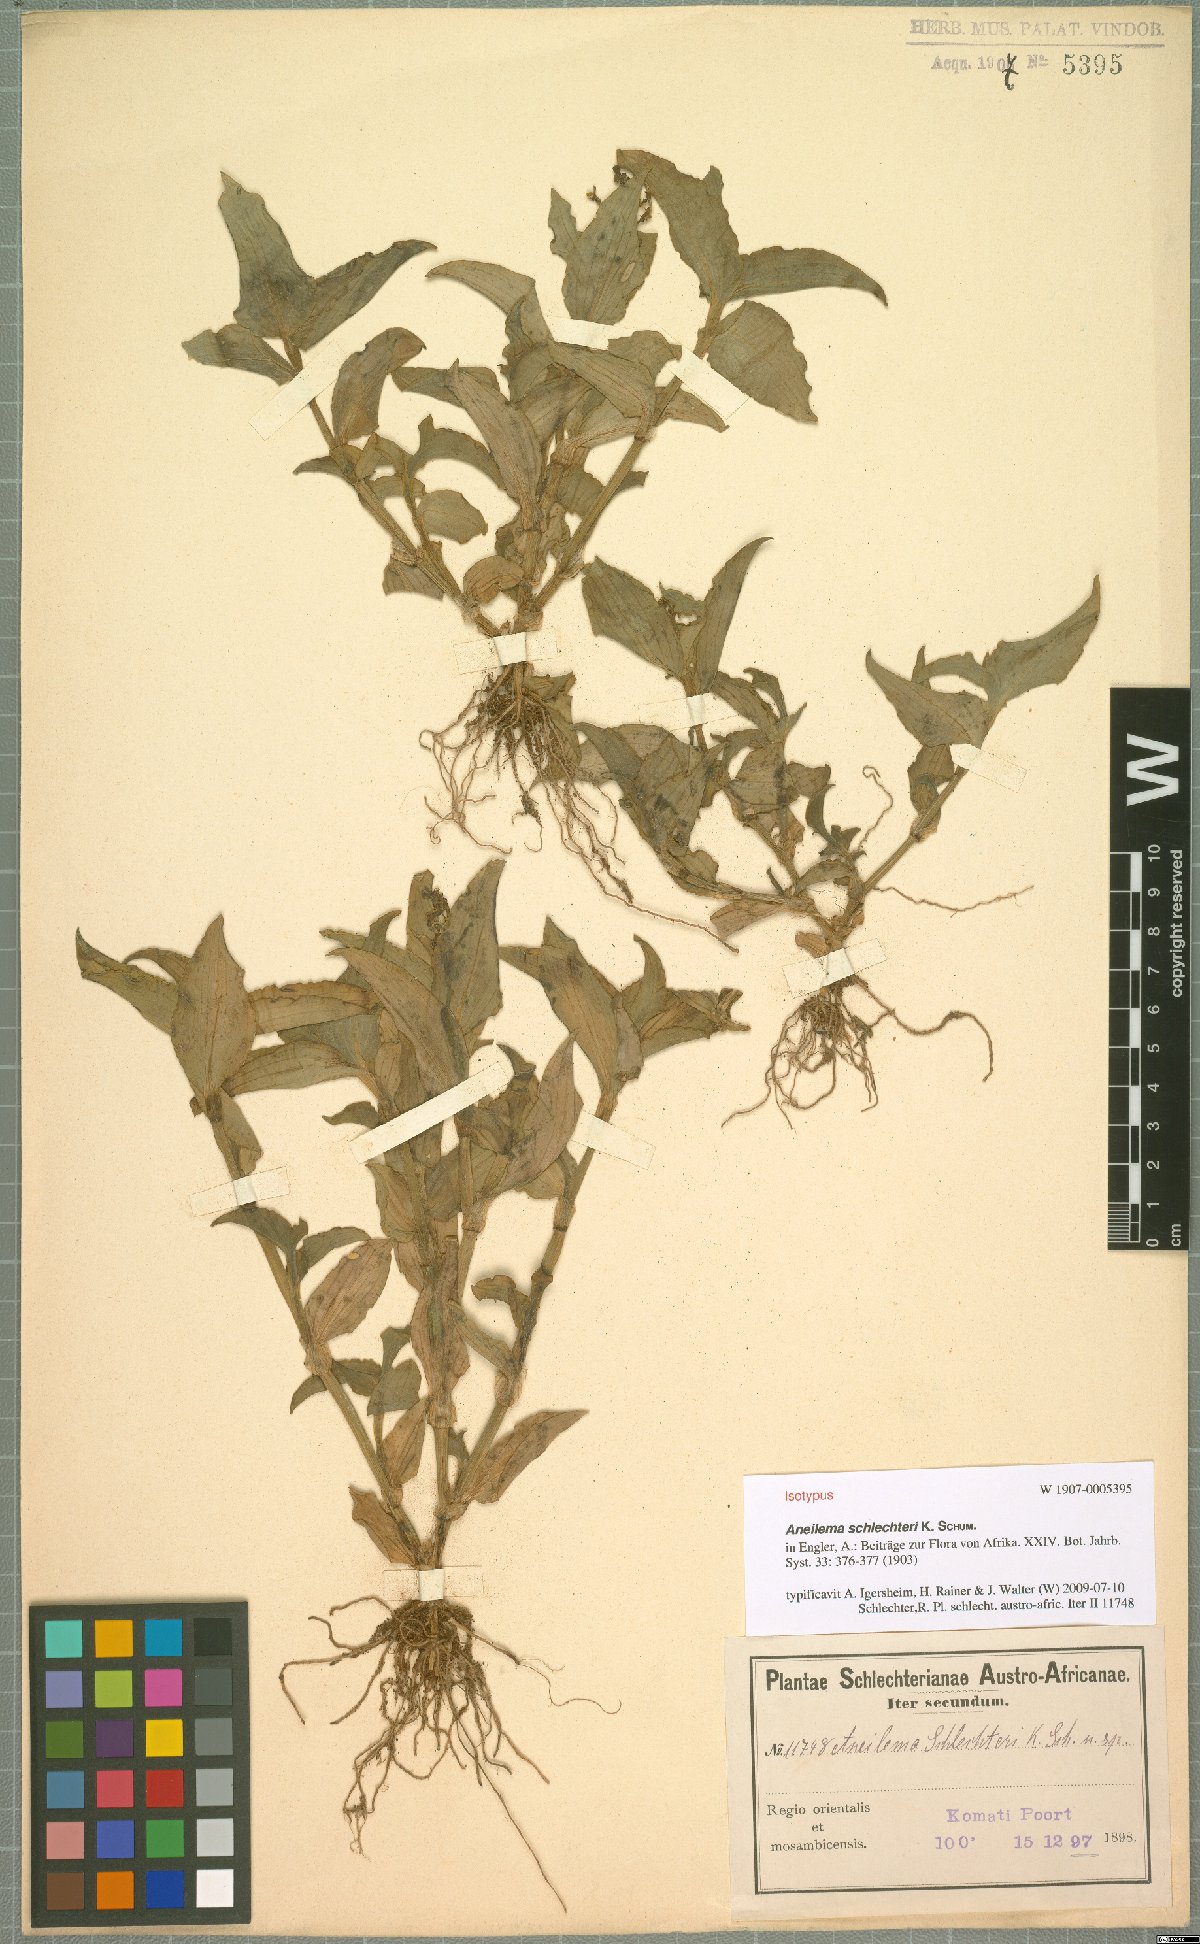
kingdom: Plantae
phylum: Tracheophyta
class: Liliopsida
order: Commelinales
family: Commelinaceae
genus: Aneilema
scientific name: Aneilema schlechteri
